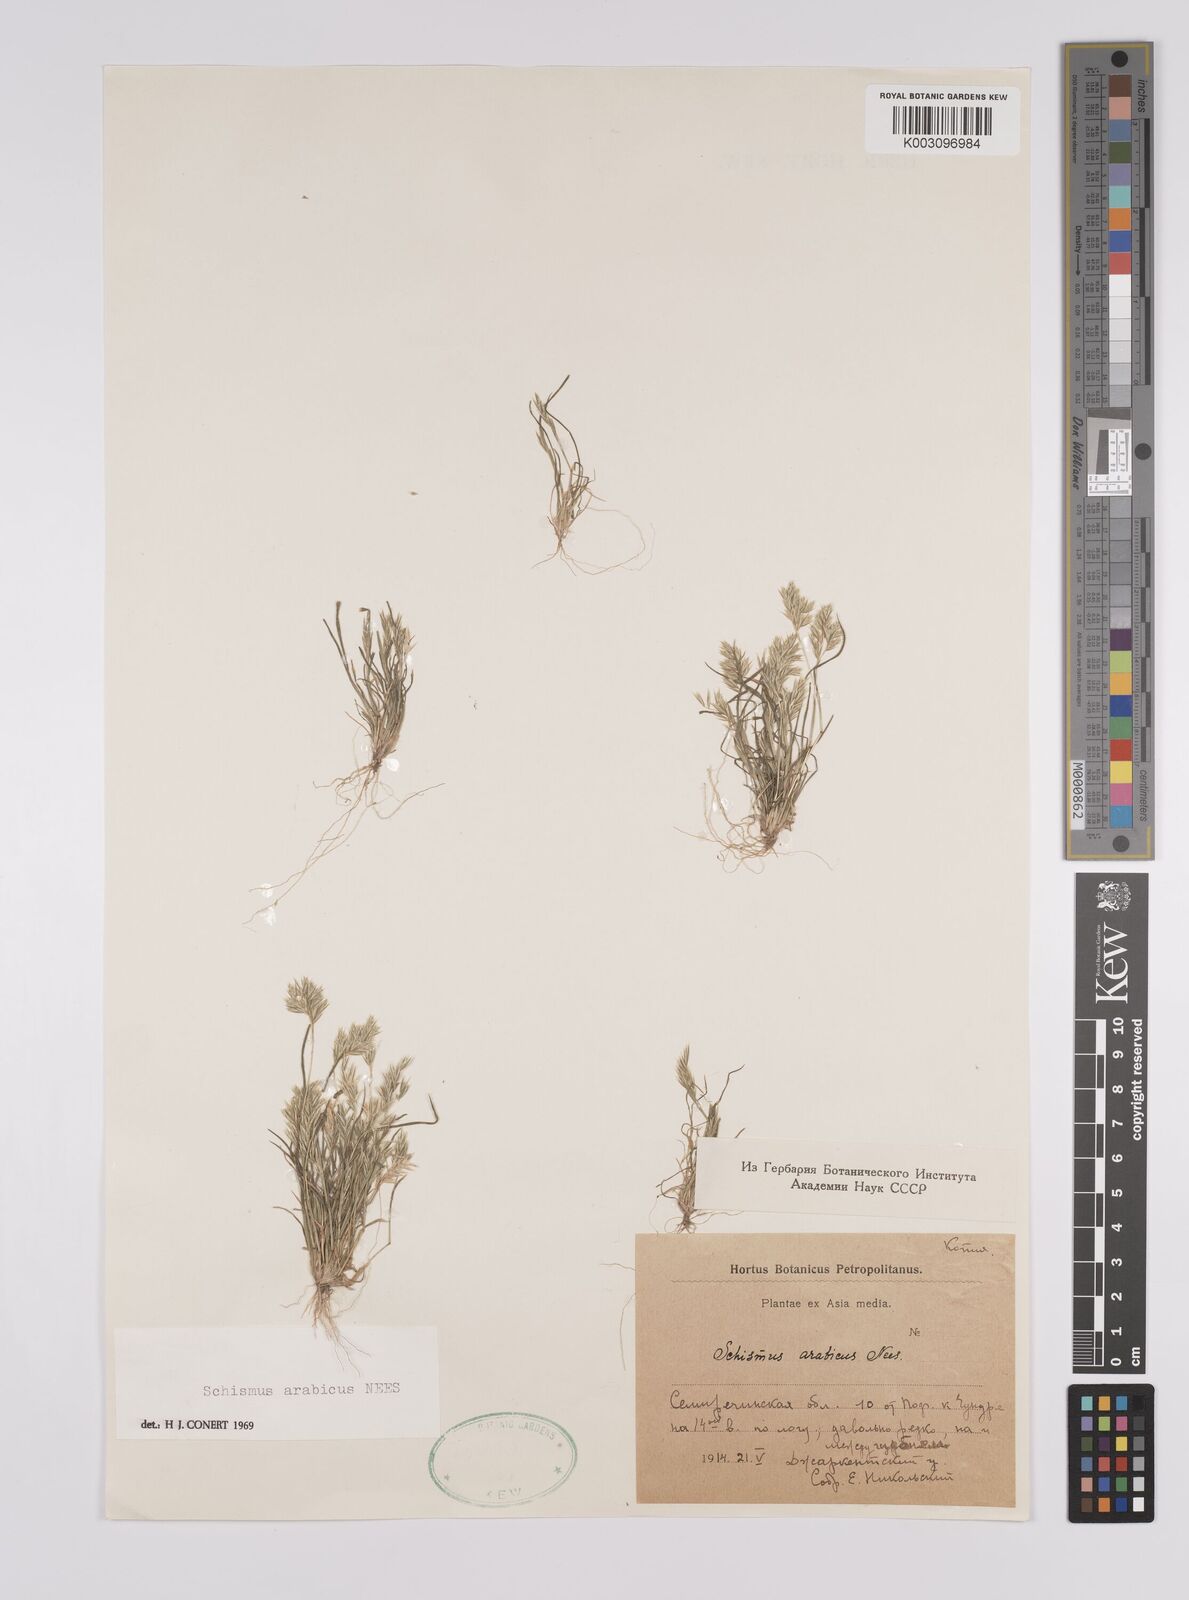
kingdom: Plantae
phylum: Tracheophyta
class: Liliopsida
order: Poales
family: Poaceae
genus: Schismus
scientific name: Schismus arabicus
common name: Arabian schismus
